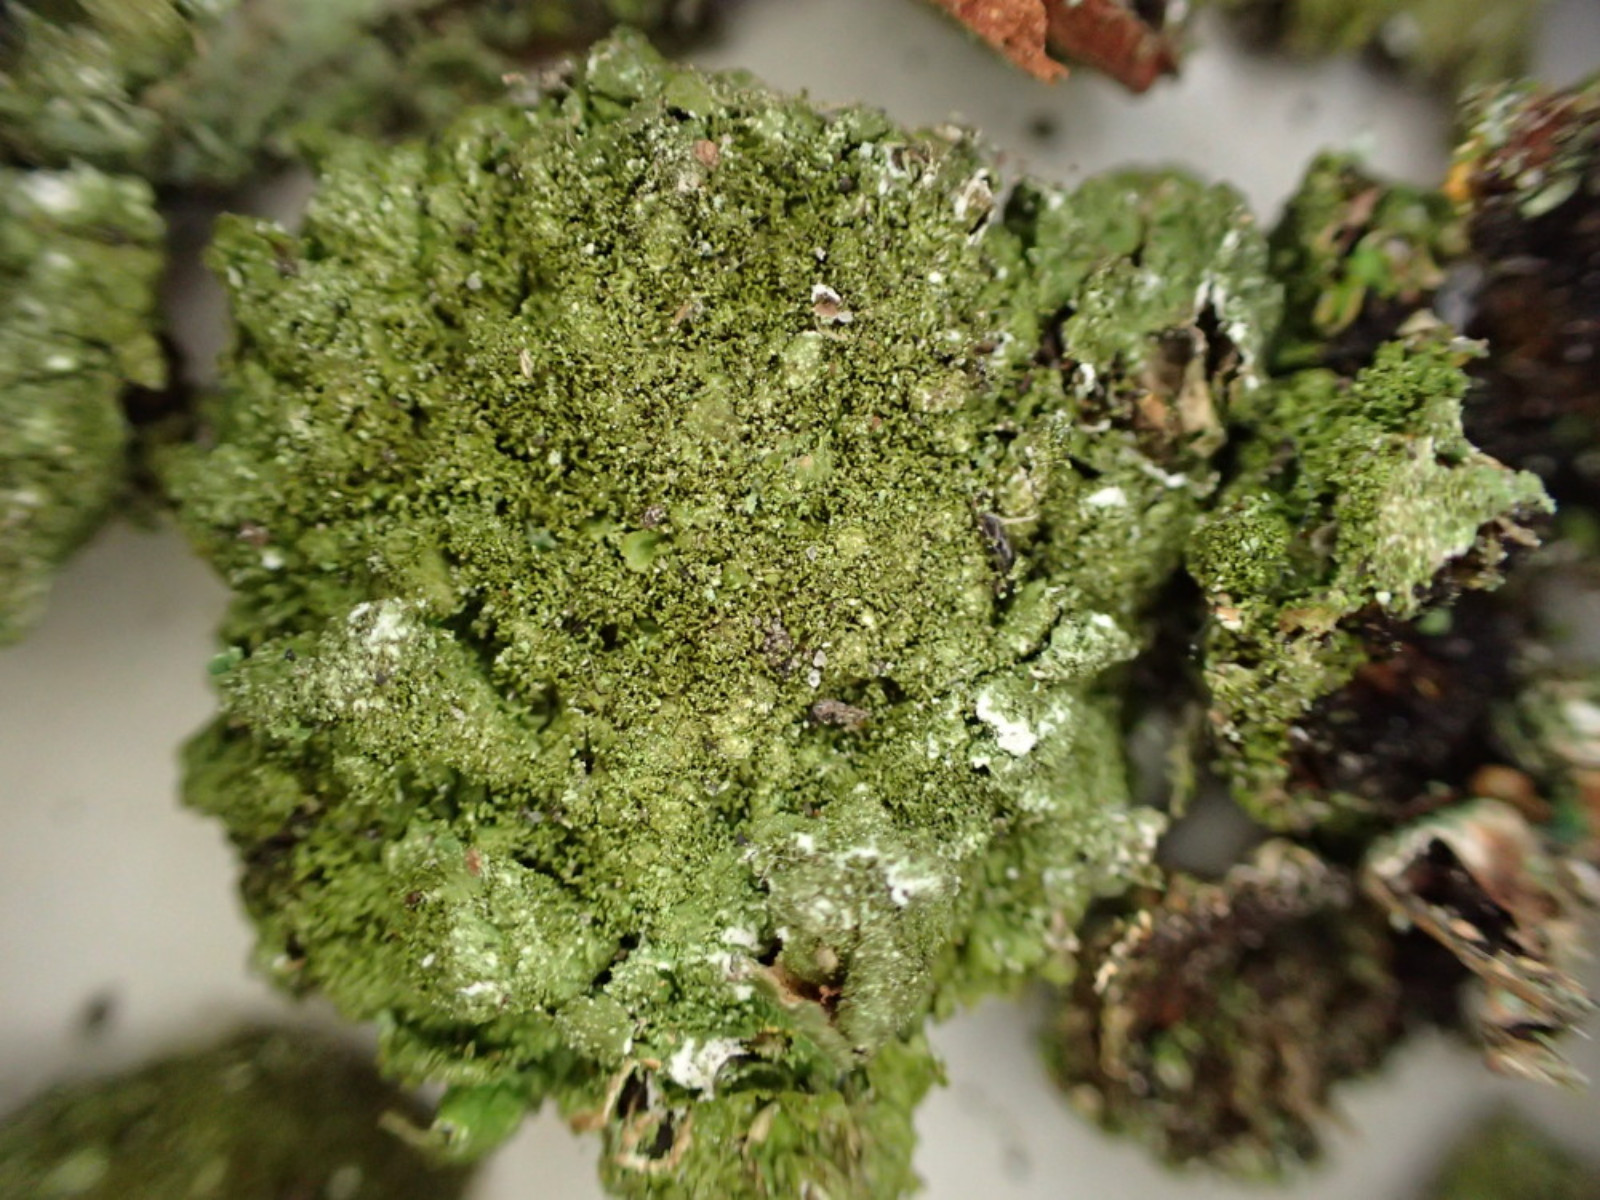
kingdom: Fungi
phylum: Ascomycota
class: Lecanoromycetes
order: Lecanorales
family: Parmeliaceae
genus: Melanelixia
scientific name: Melanelixia subaurifera
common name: guldpudret skållav
